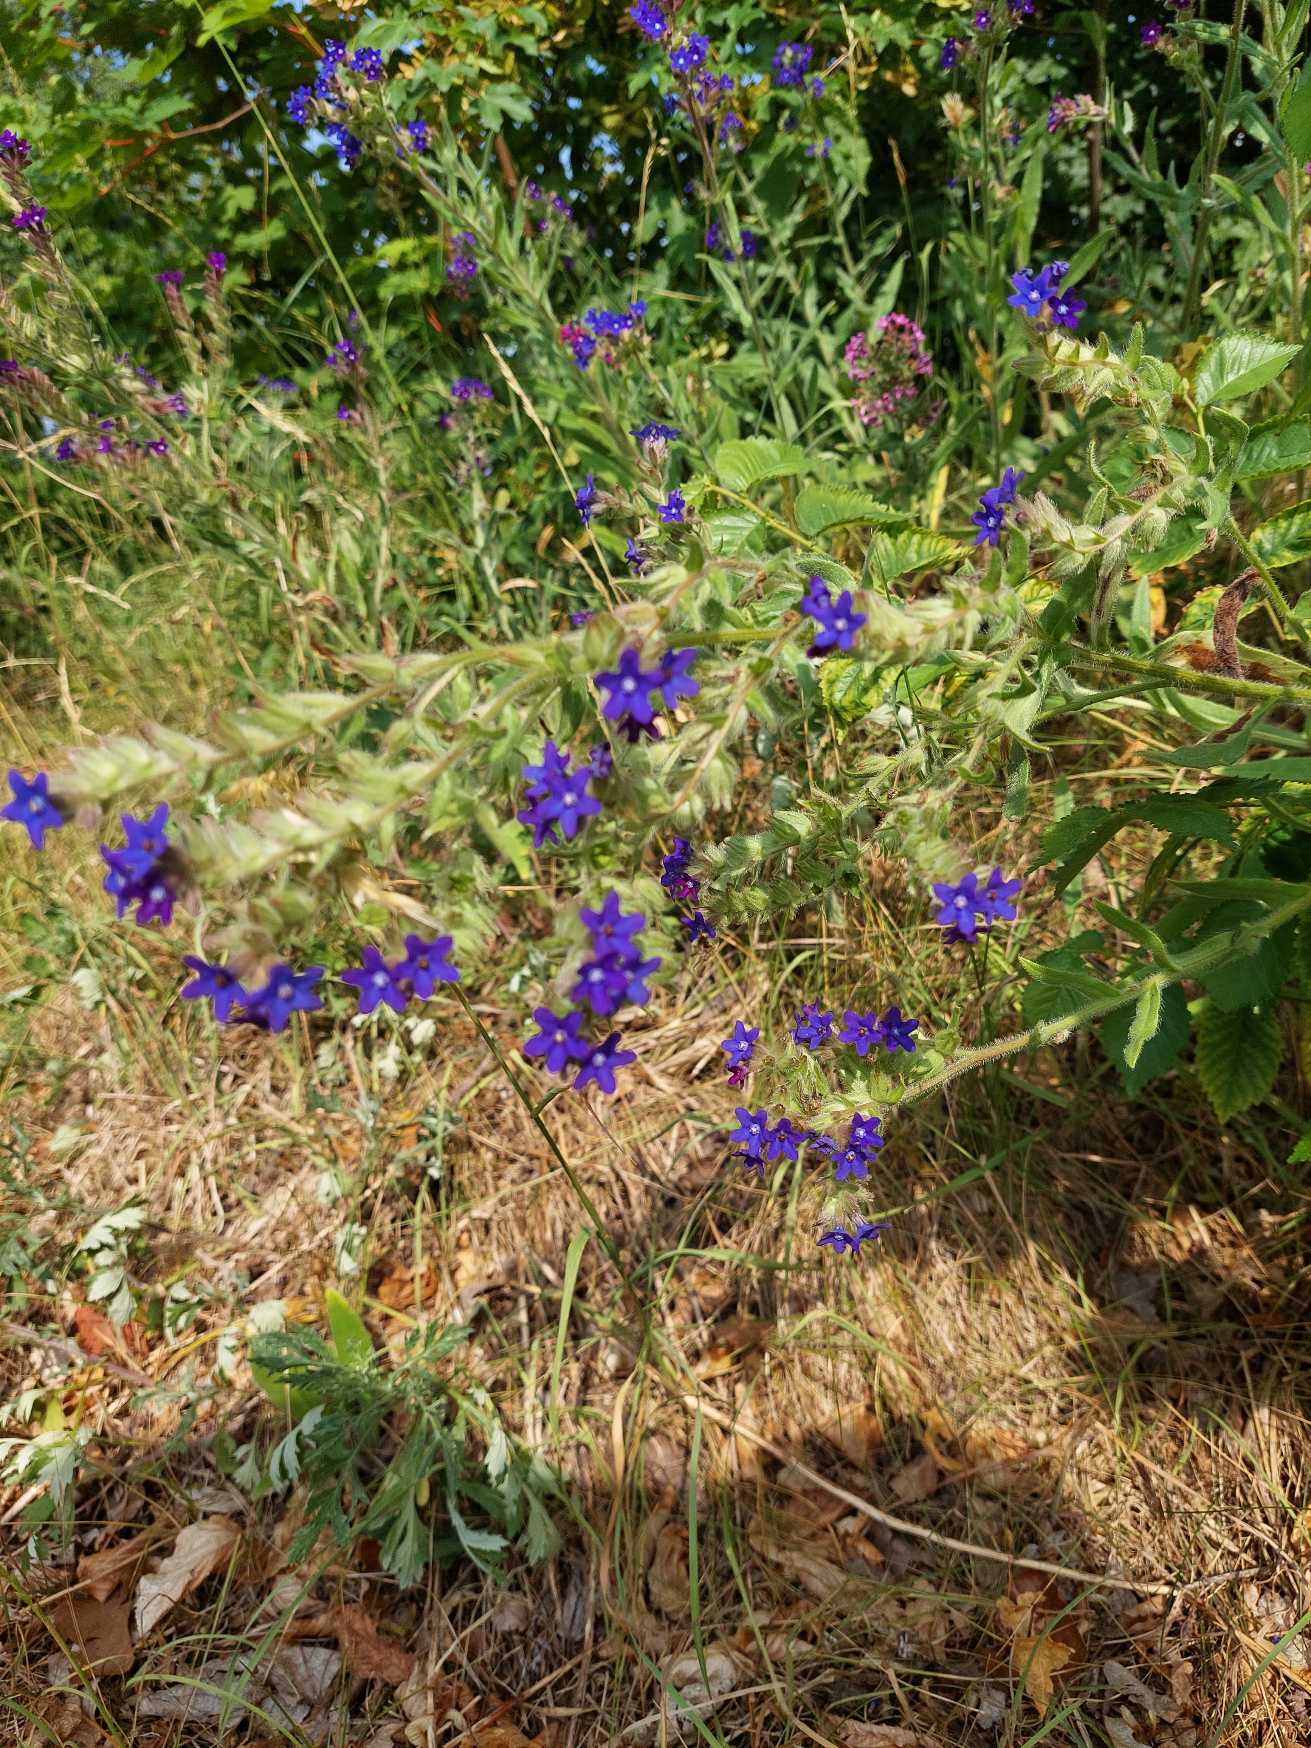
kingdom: Plantae
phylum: Tracheophyta
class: Magnoliopsida
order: Boraginales
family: Boraginaceae
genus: Anchusa
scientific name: Anchusa officinalis
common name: Læge-oksetunge
